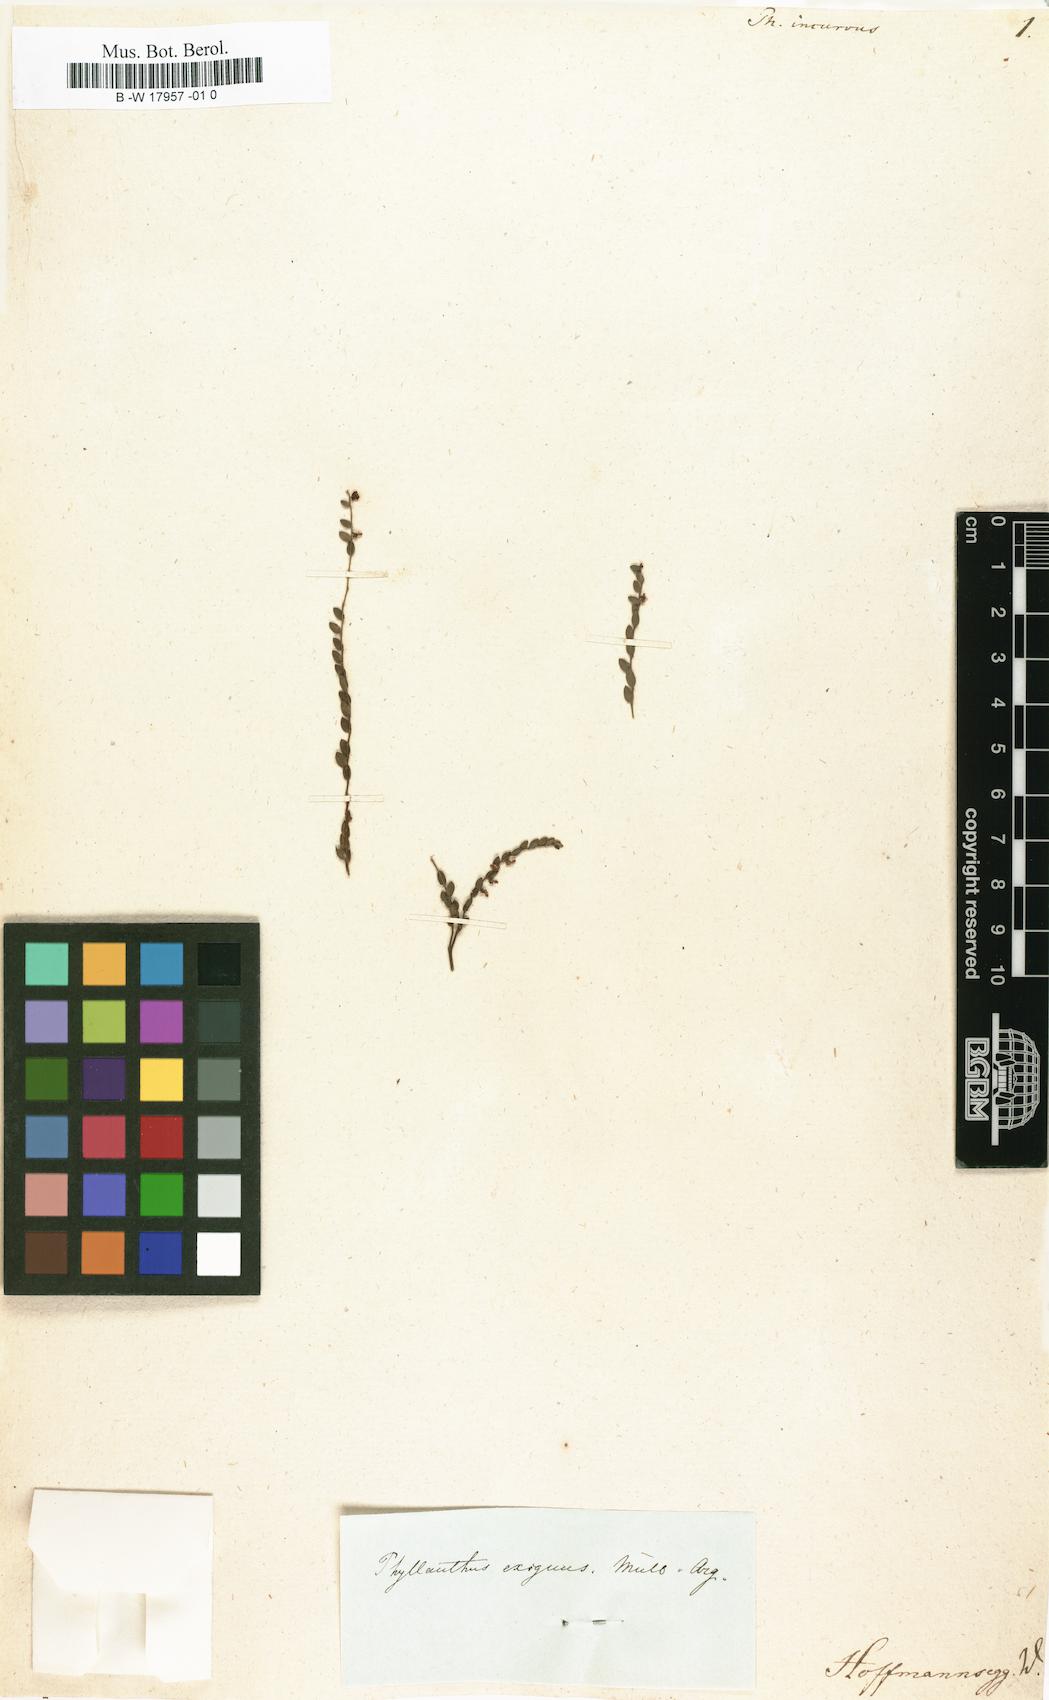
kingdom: Plantae
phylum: Tracheophyta
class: Magnoliopsida
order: Malpighiales
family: Phyllanthaceae
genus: Phyllanthus
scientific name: Phyllanthus andrachniformis
